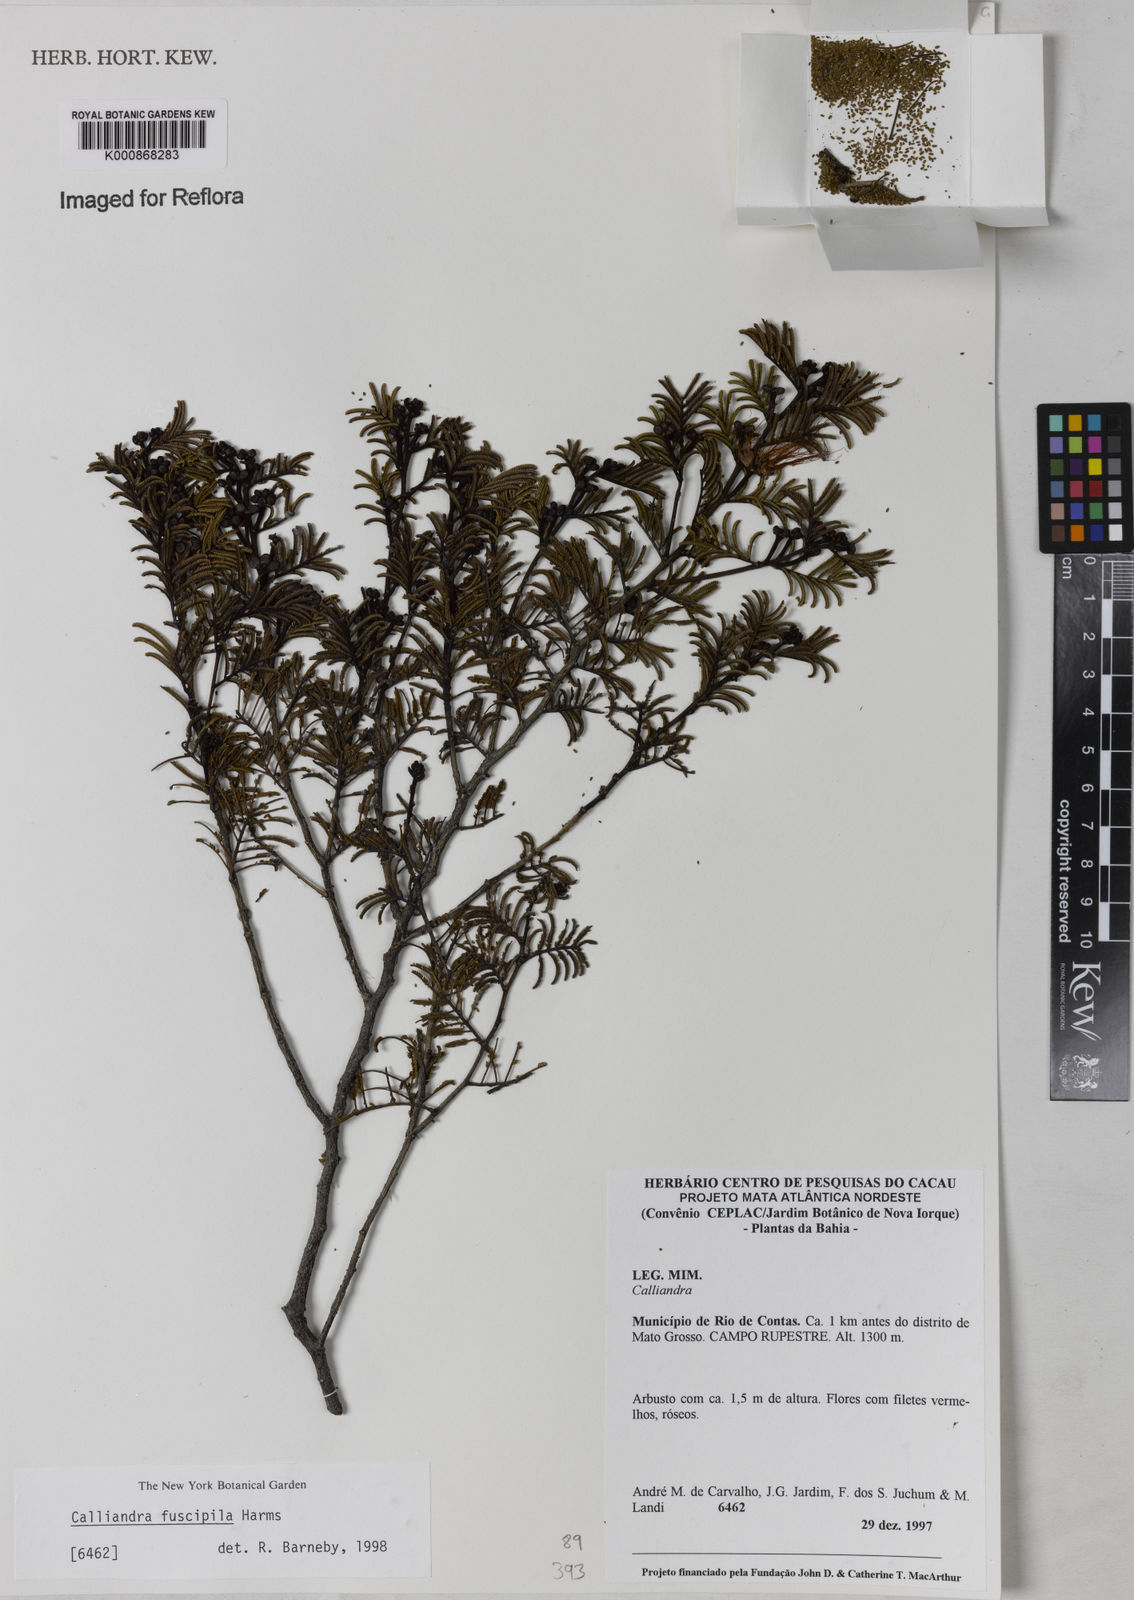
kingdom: Plantae
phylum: Tracheophyta
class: Magnoliopsida
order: Fabales
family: Fabaceae
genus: Calliandra
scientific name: Calliandra fuscipila
